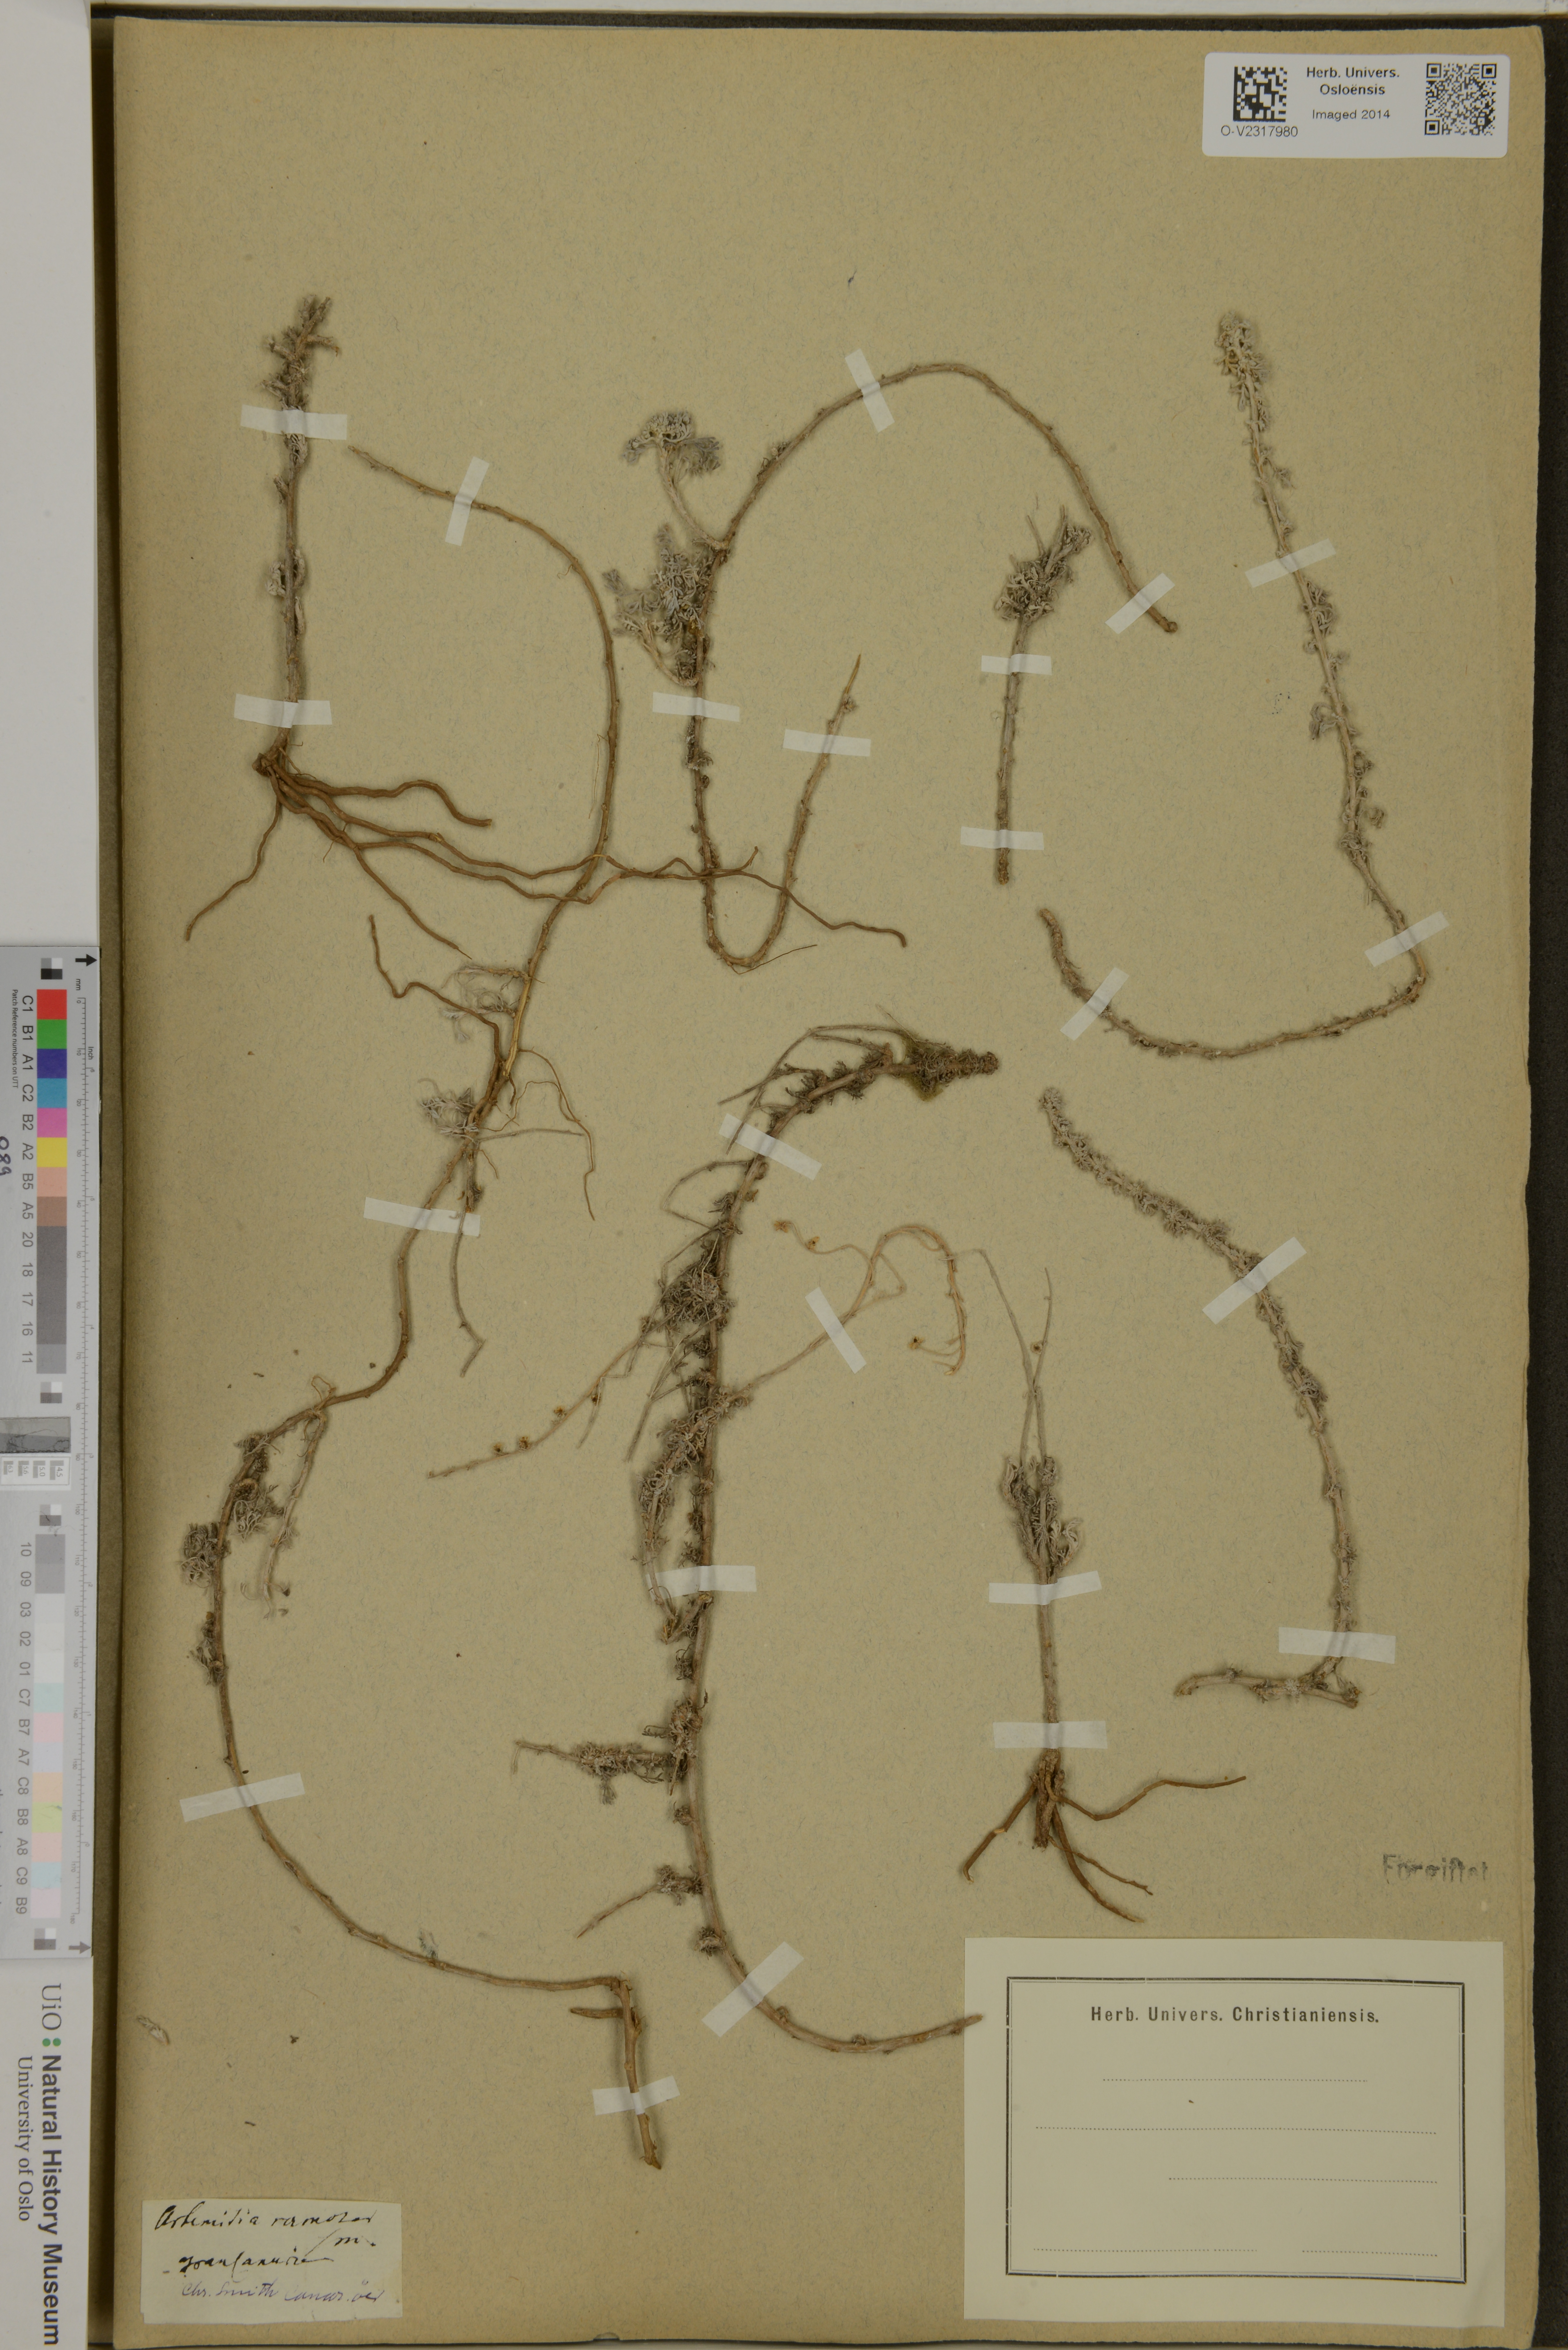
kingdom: Plantae
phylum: Tracheophyta
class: Magnoliopsida
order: Asterales
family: Asteraceae
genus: Artemisia
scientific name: Artemisia ramosa
